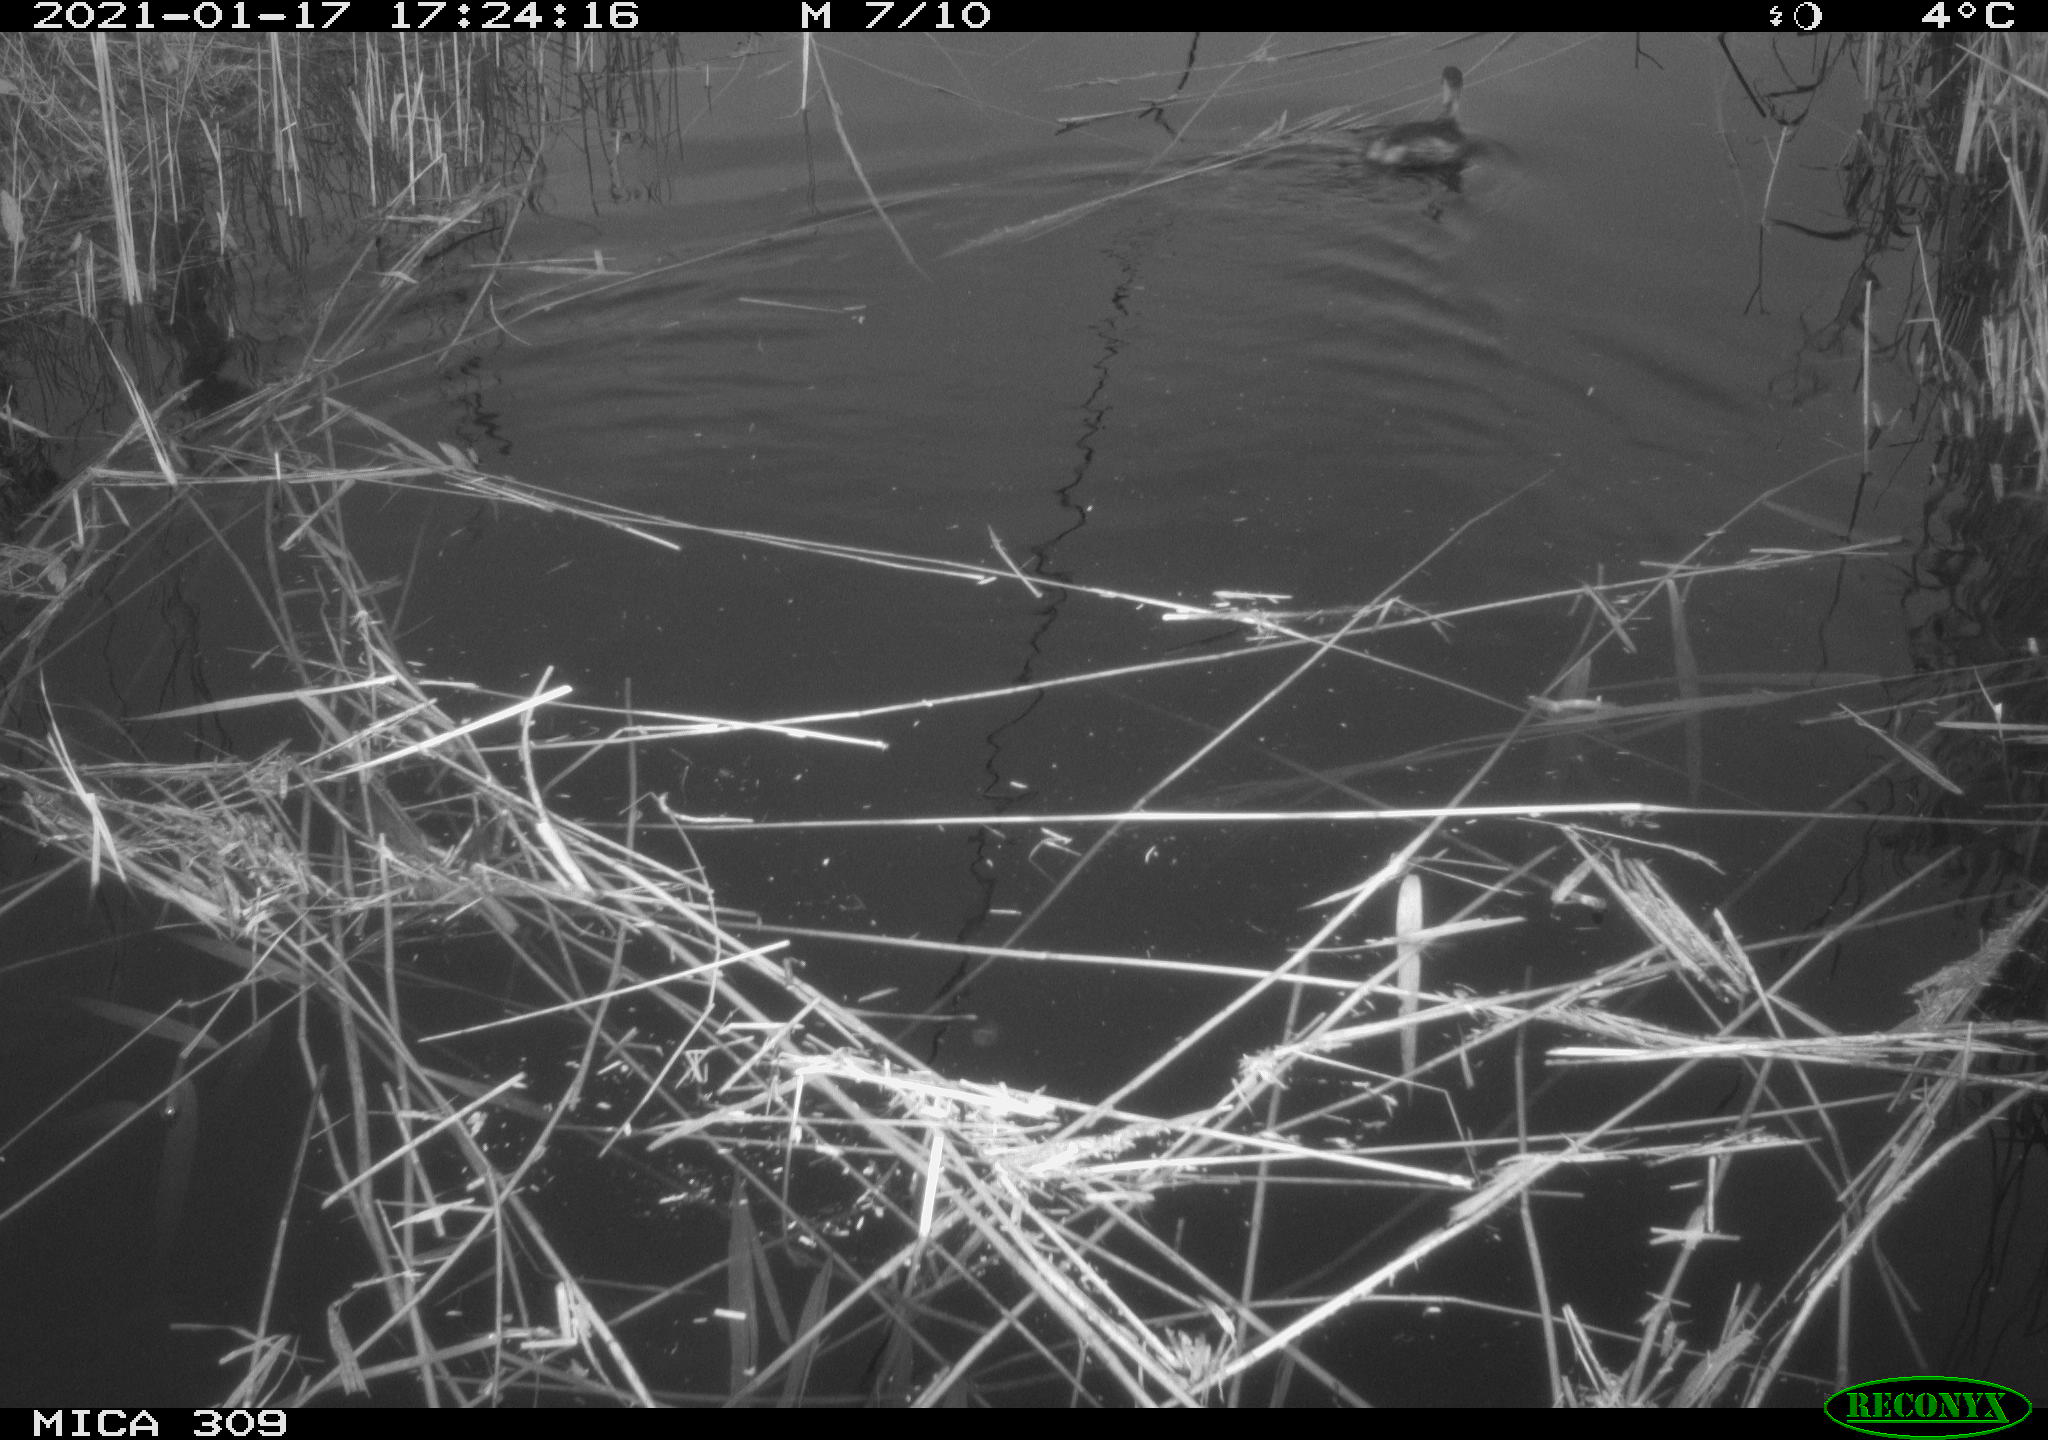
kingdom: Animalia
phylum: Chordata
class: Aves
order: Podicipediformes
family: Podicipedidae
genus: Tachybaptus
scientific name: Tachybaptus ruficollis
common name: Little grebe
